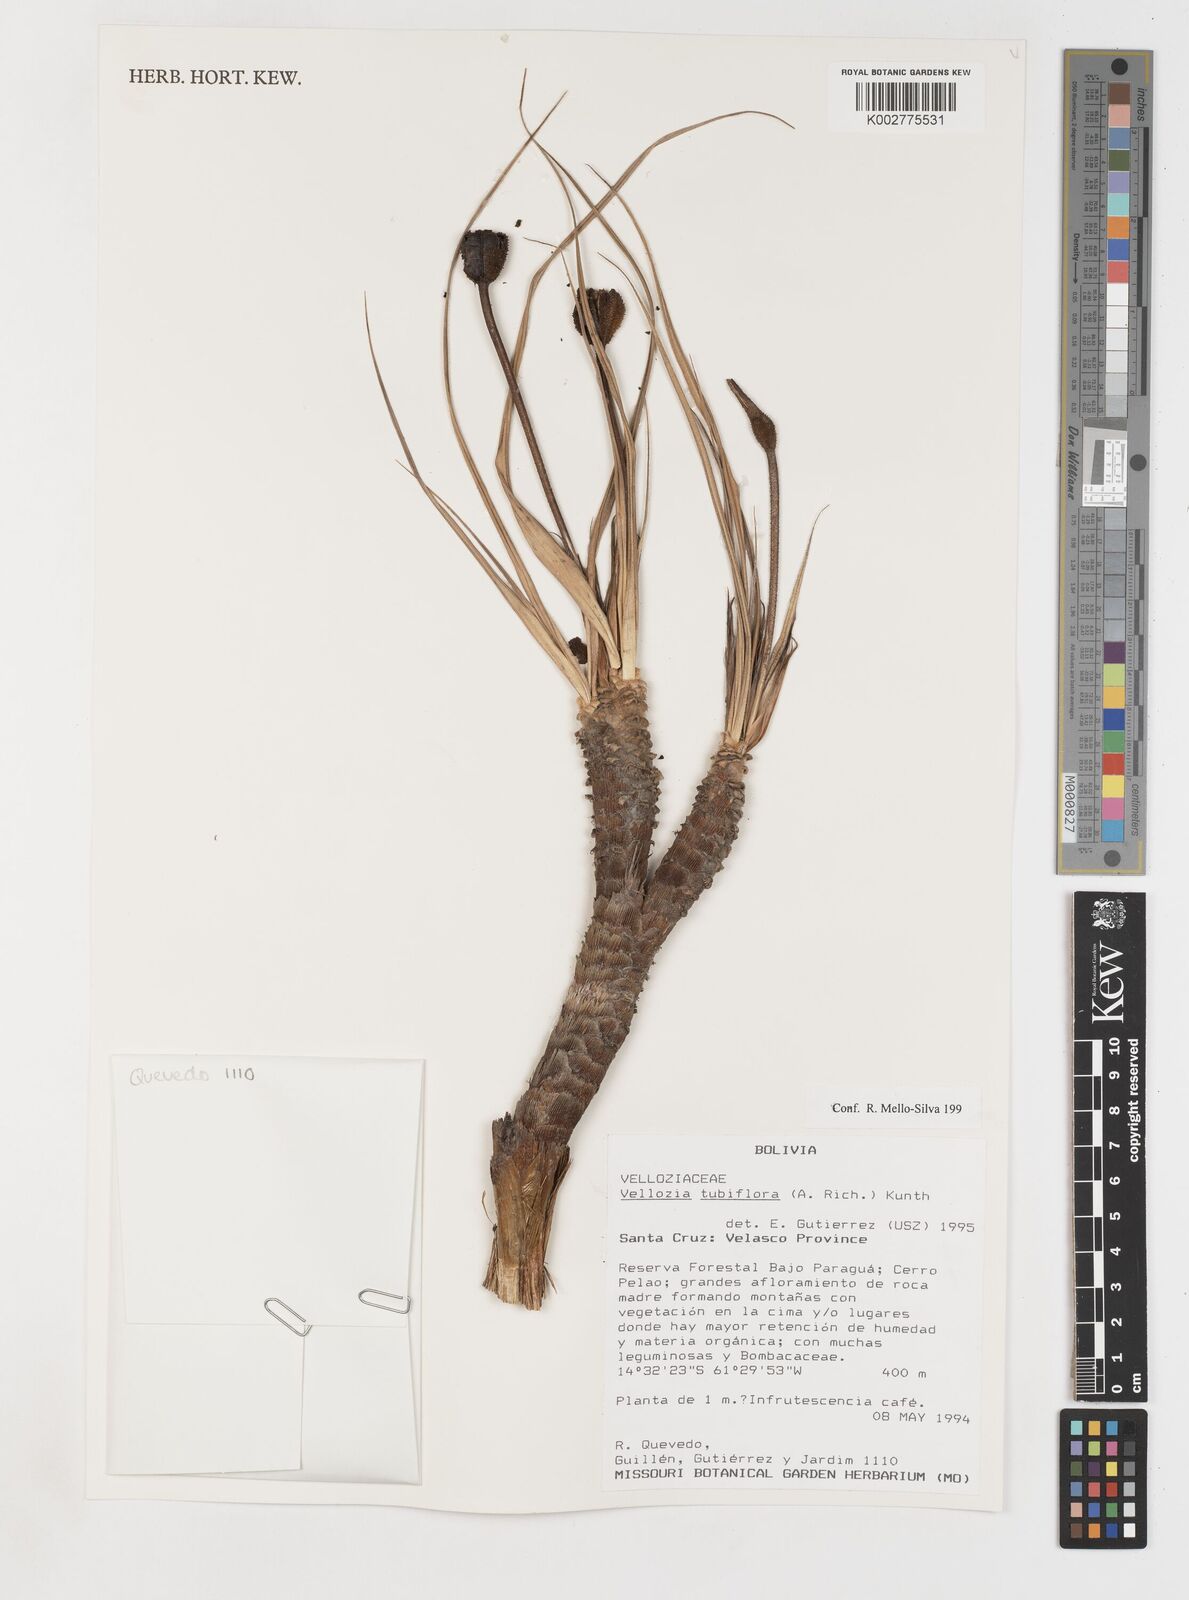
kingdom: Plantae
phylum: Tracheophyta
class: Liliopsida
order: Pandanales
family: Velloziaceae
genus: Vellozia
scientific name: Vellozia tubiflora
